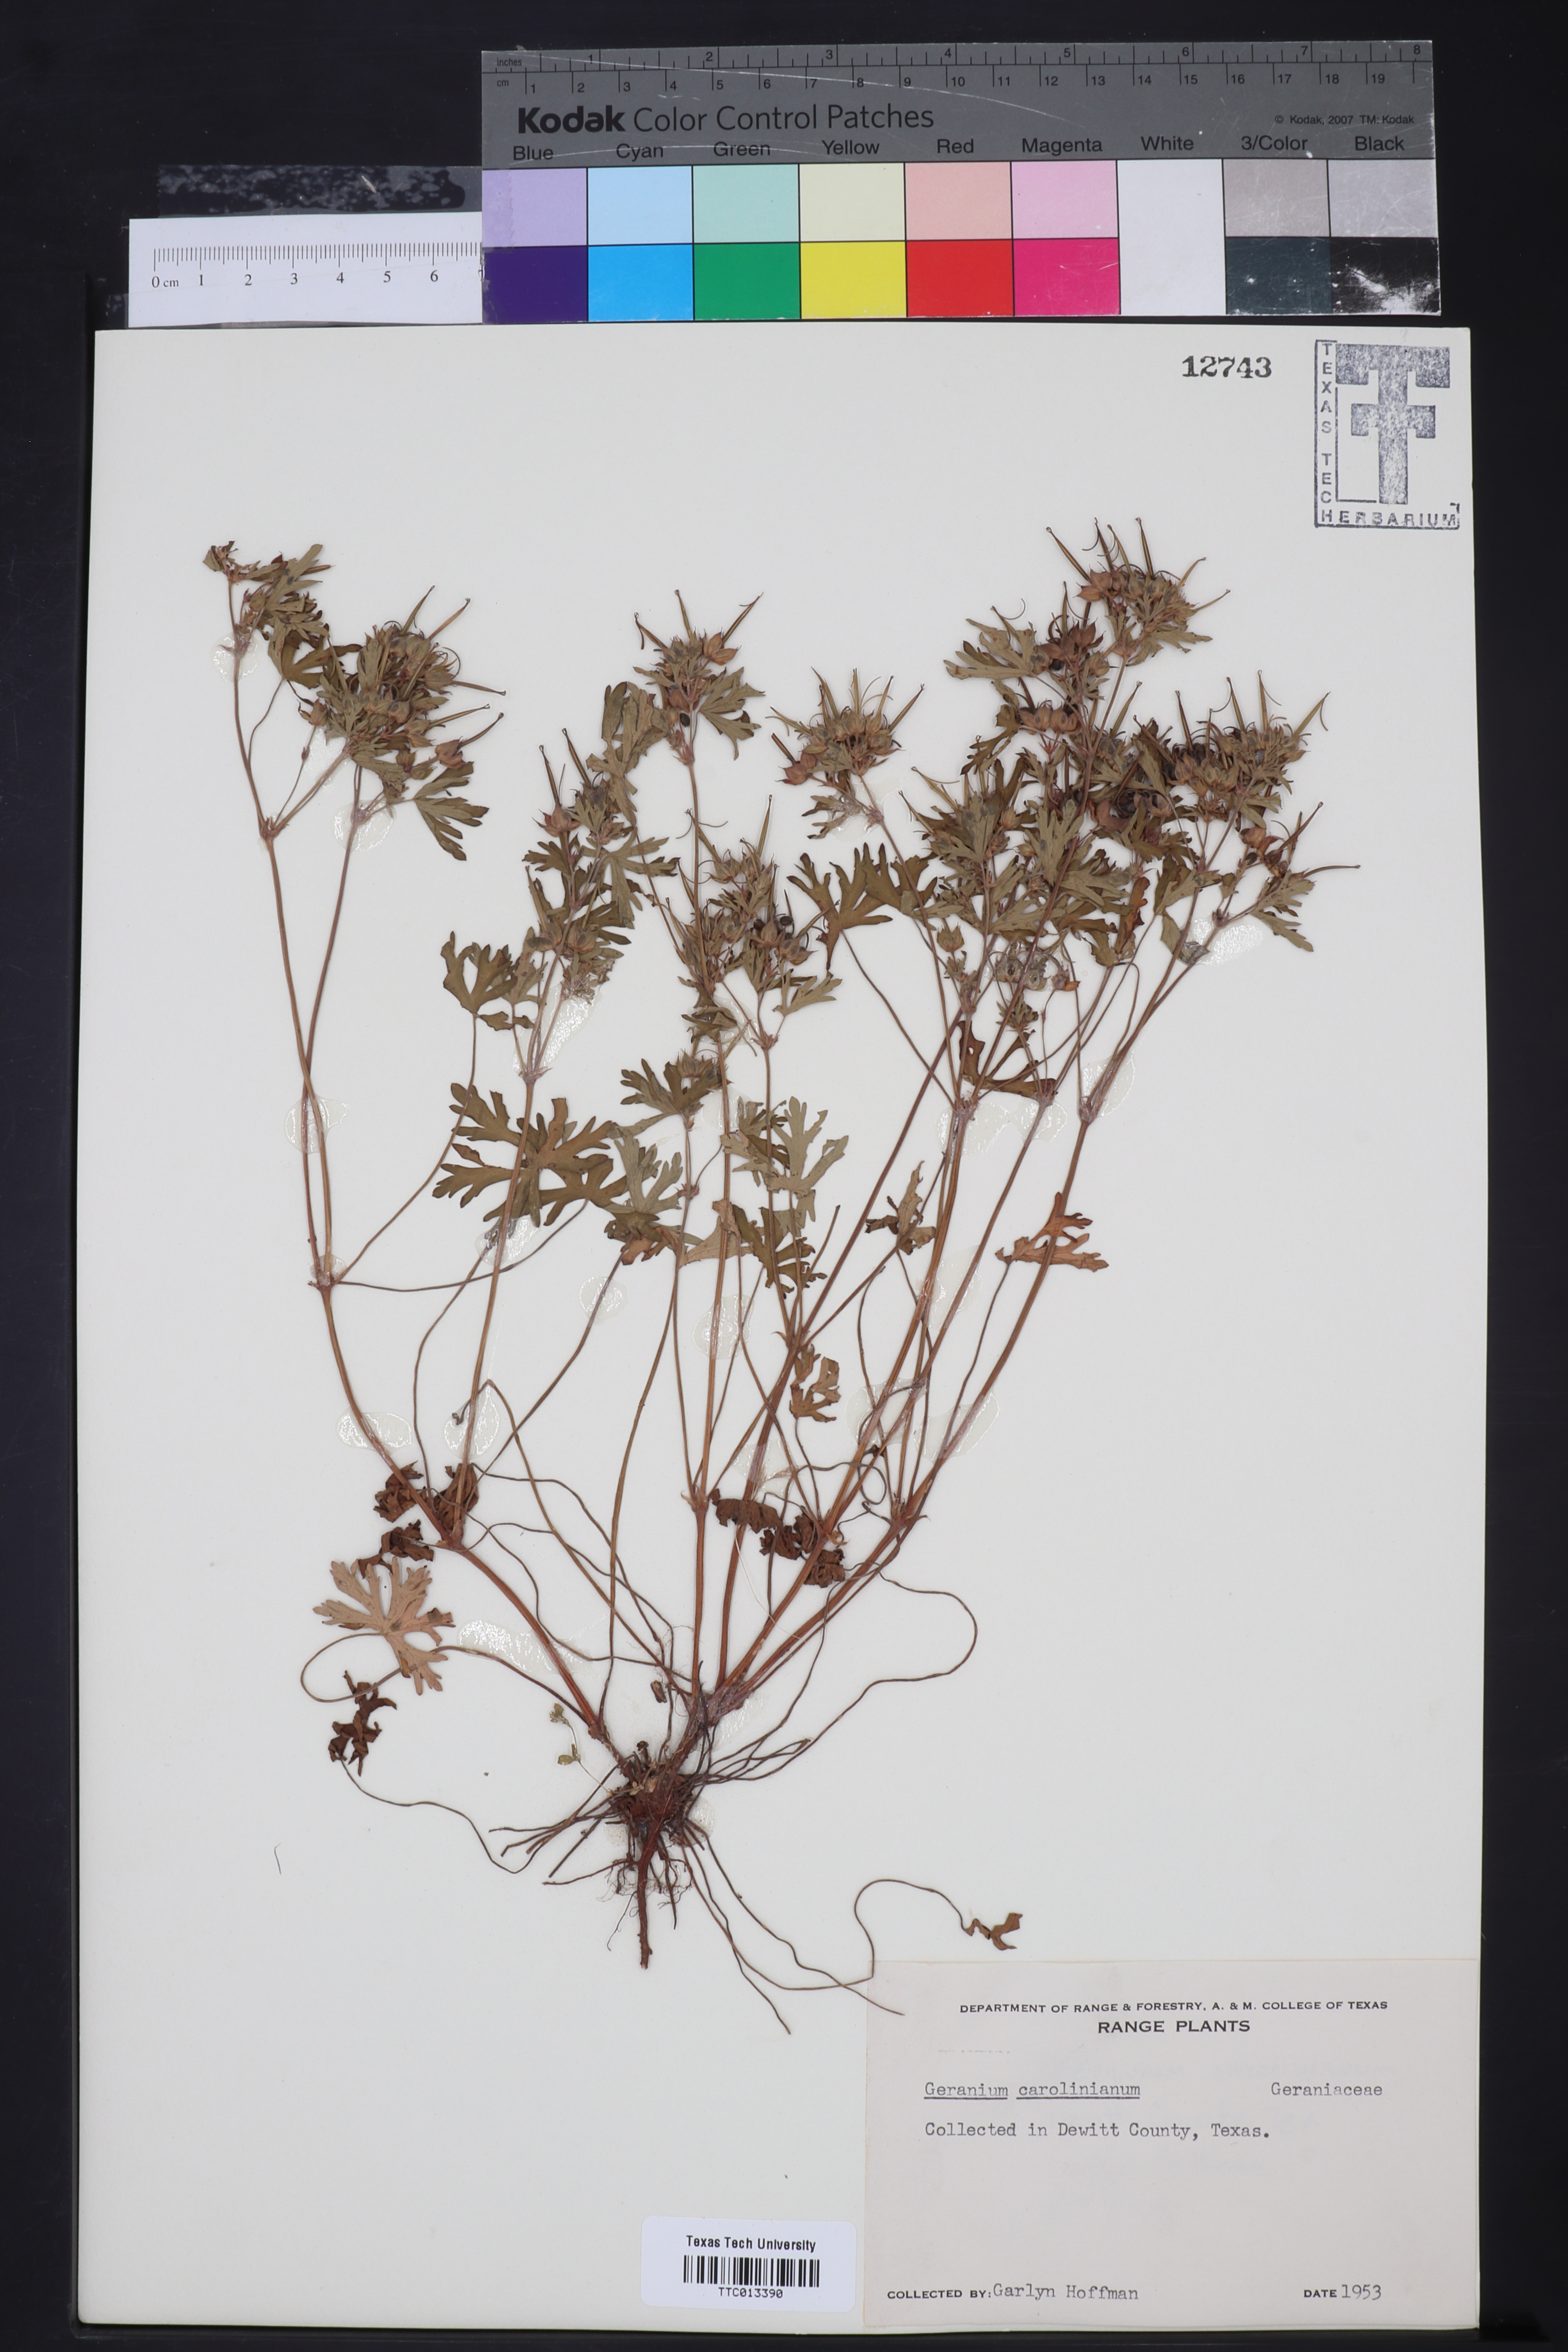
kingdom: Plantae
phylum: Tracheophyta
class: Magnoliopsida
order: Geraniales
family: Geraniaceae
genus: Geranium
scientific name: Geranium carolinianum
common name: Carolina crane's-bill
